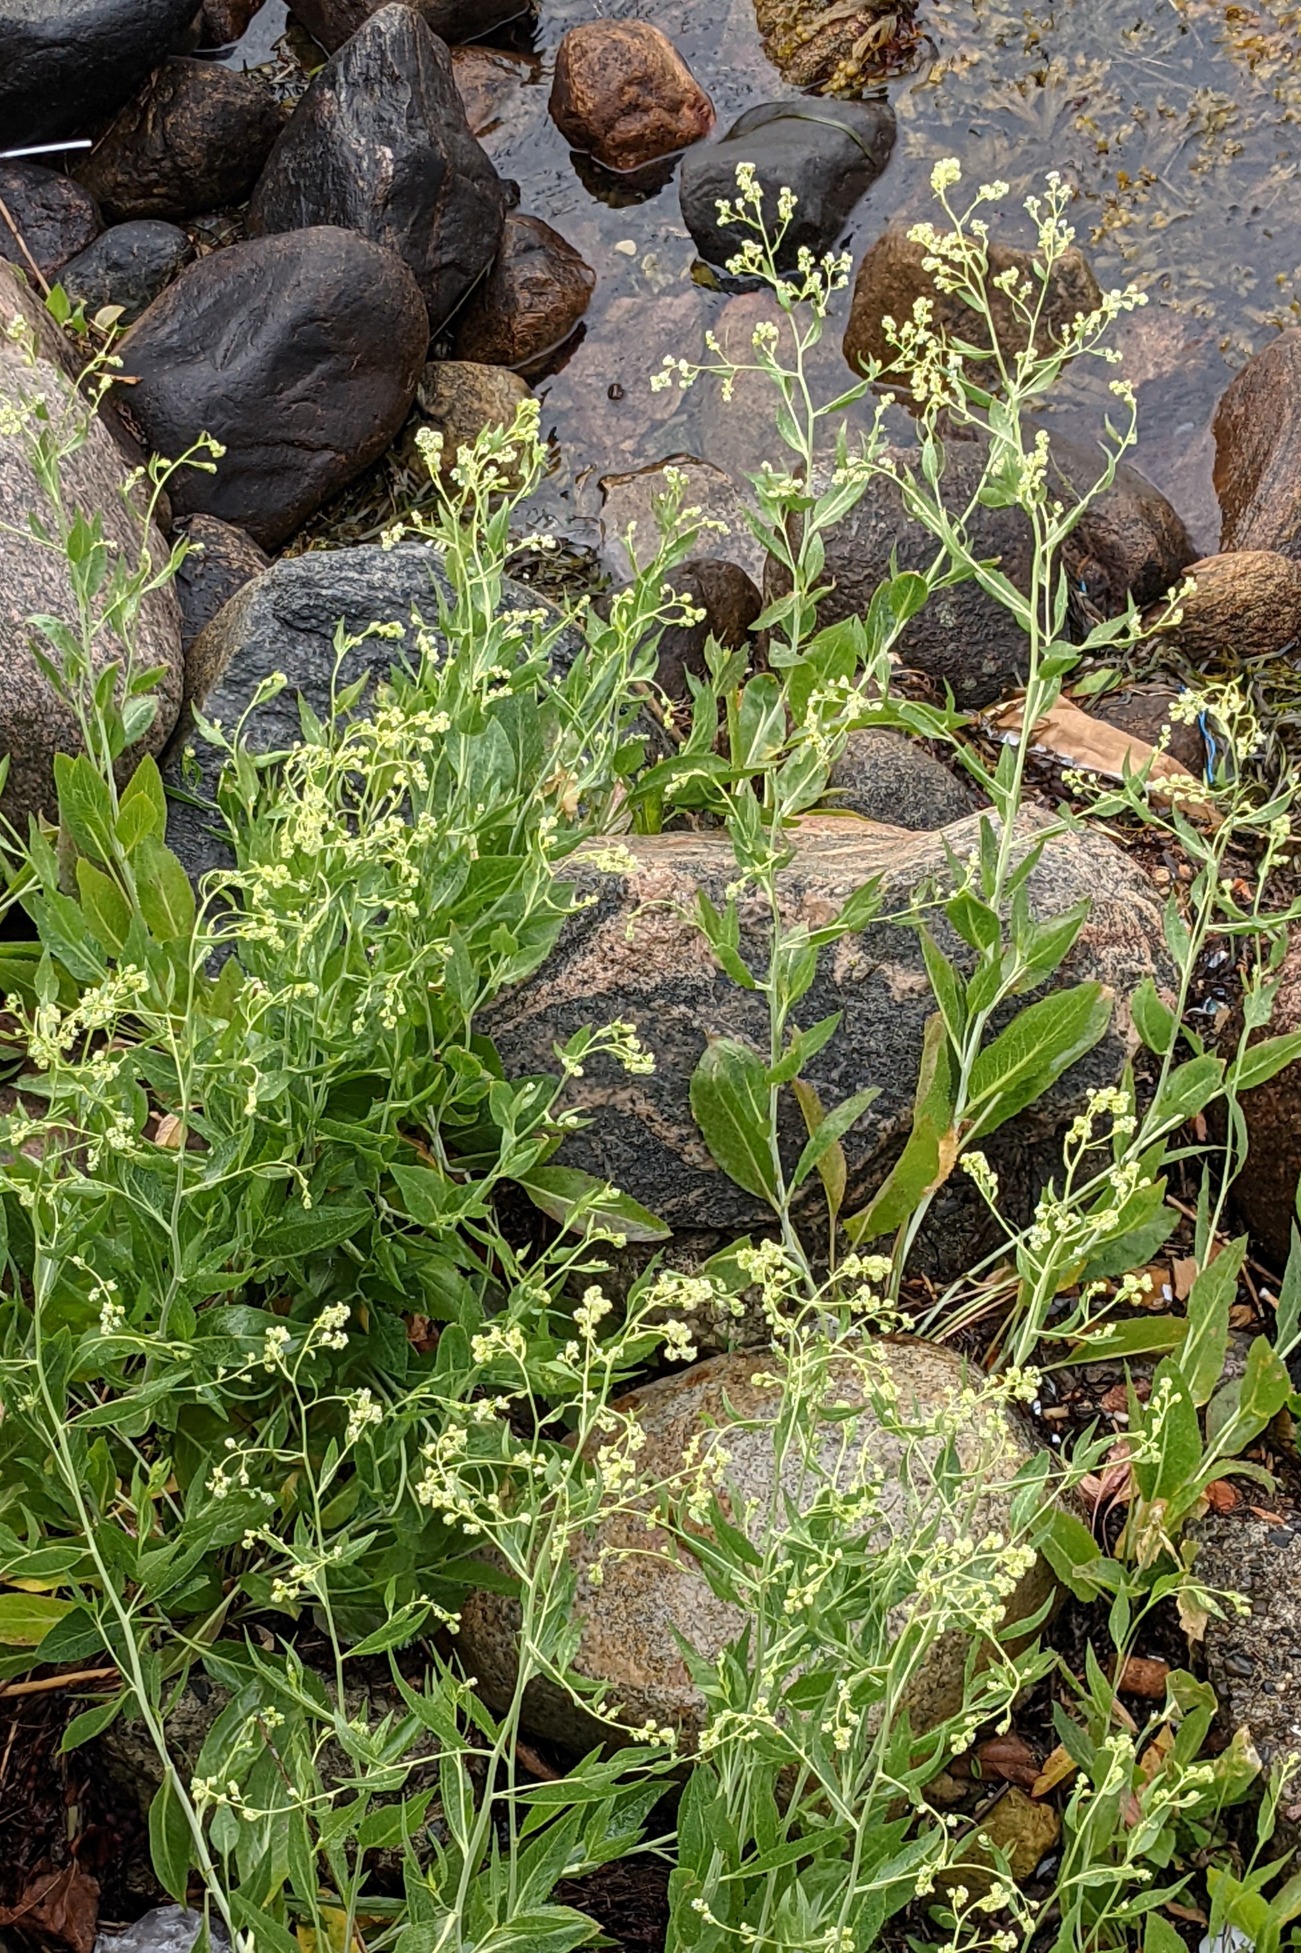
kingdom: Plantae
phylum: Tracheophyta
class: Magnoliopsida
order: Brassicales
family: Brassicaceae
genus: Lepidium
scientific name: Lepidium latifolium
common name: Strand-karse
